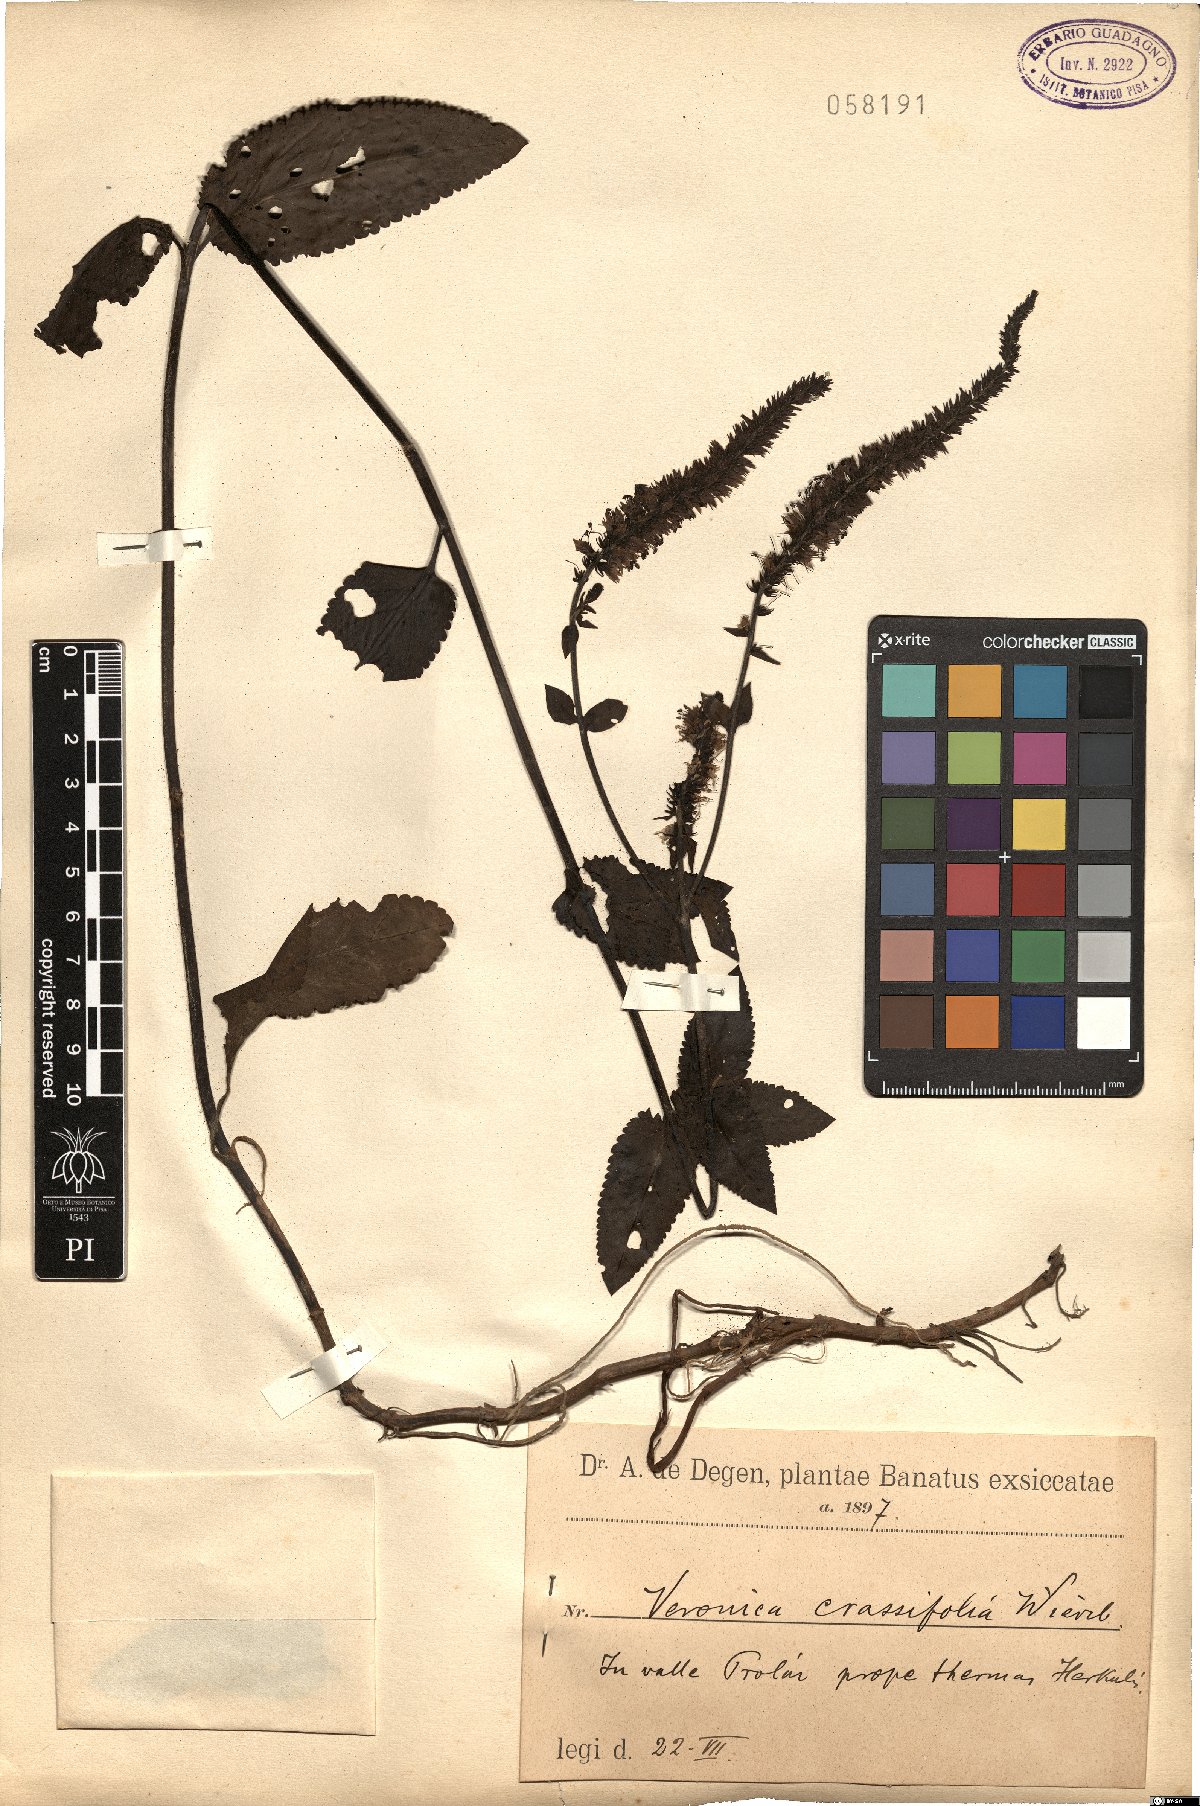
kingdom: Plantae
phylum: Tracheophyta
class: Magnoliopsida
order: Lamiales
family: Plantaginaceae
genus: Veronica
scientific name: Veronica orchidea
